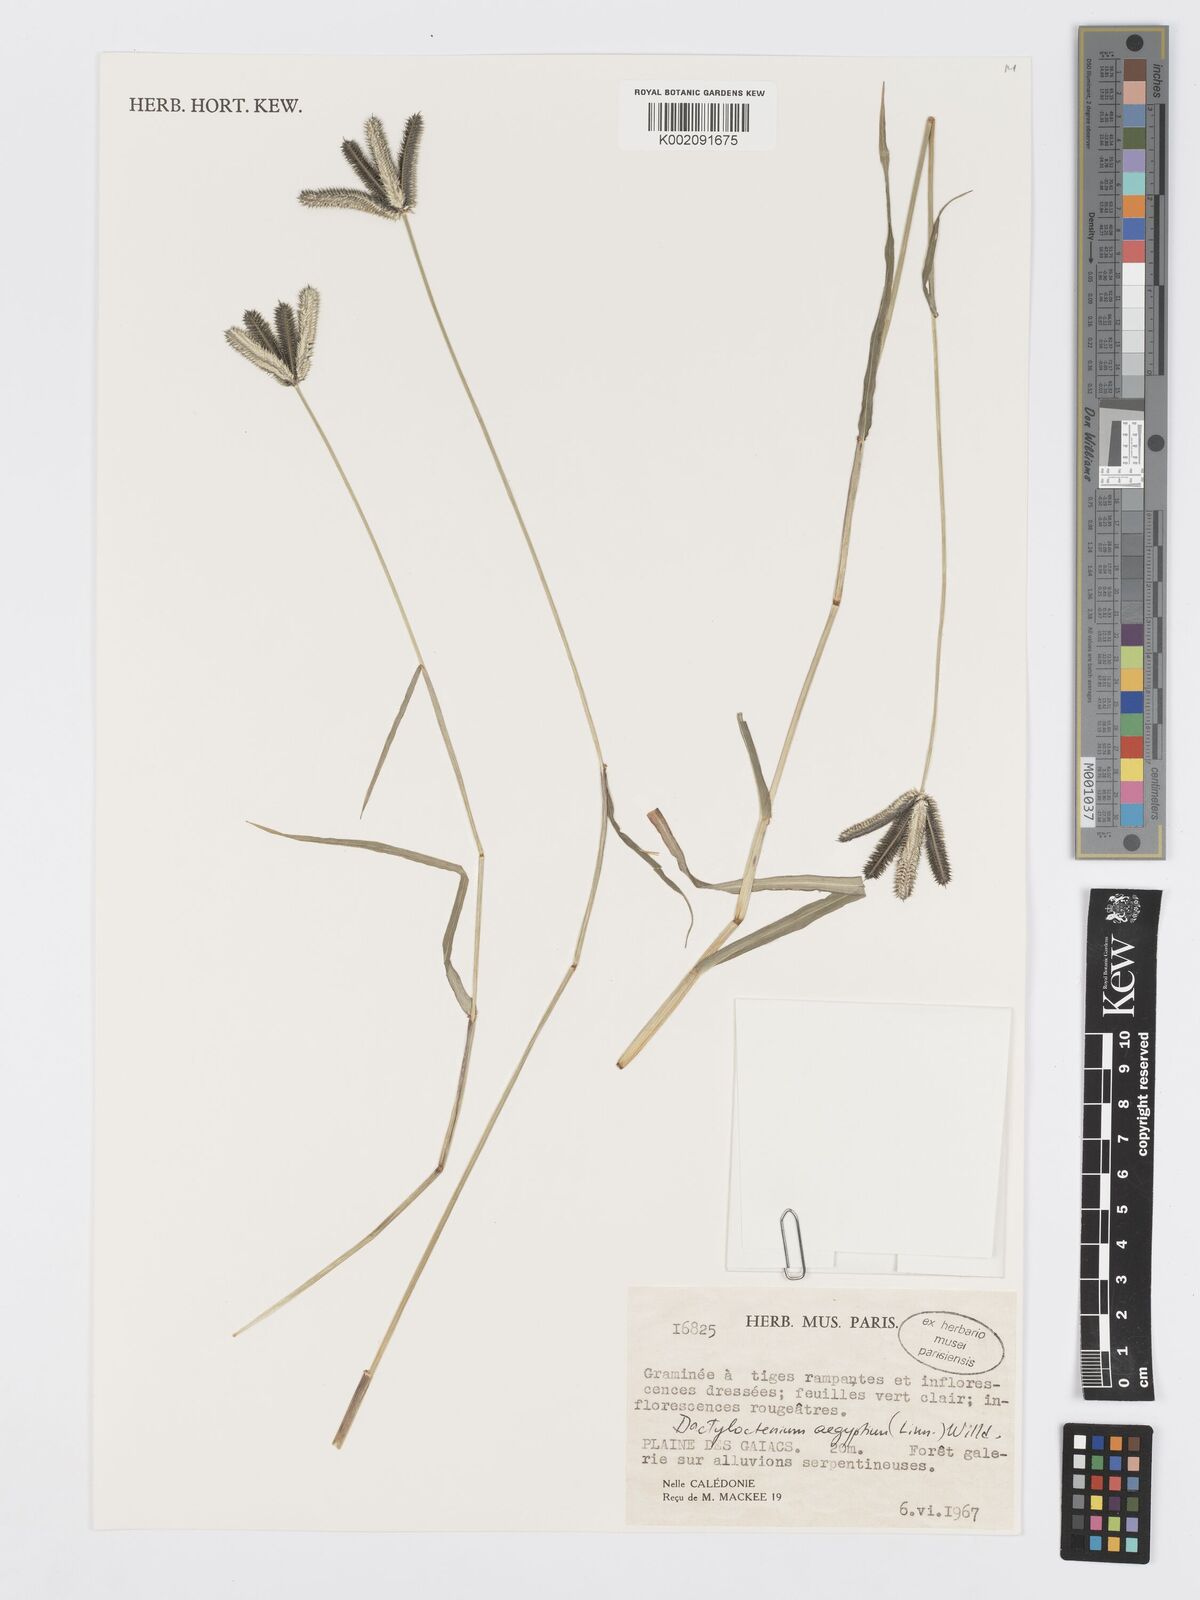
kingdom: Plantae
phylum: Tracheophyta
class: Liliopsida
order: Poales
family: Poaceae
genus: Dactyloctenium
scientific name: Dactyloctenium aegyptium
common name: Egyptian grass
